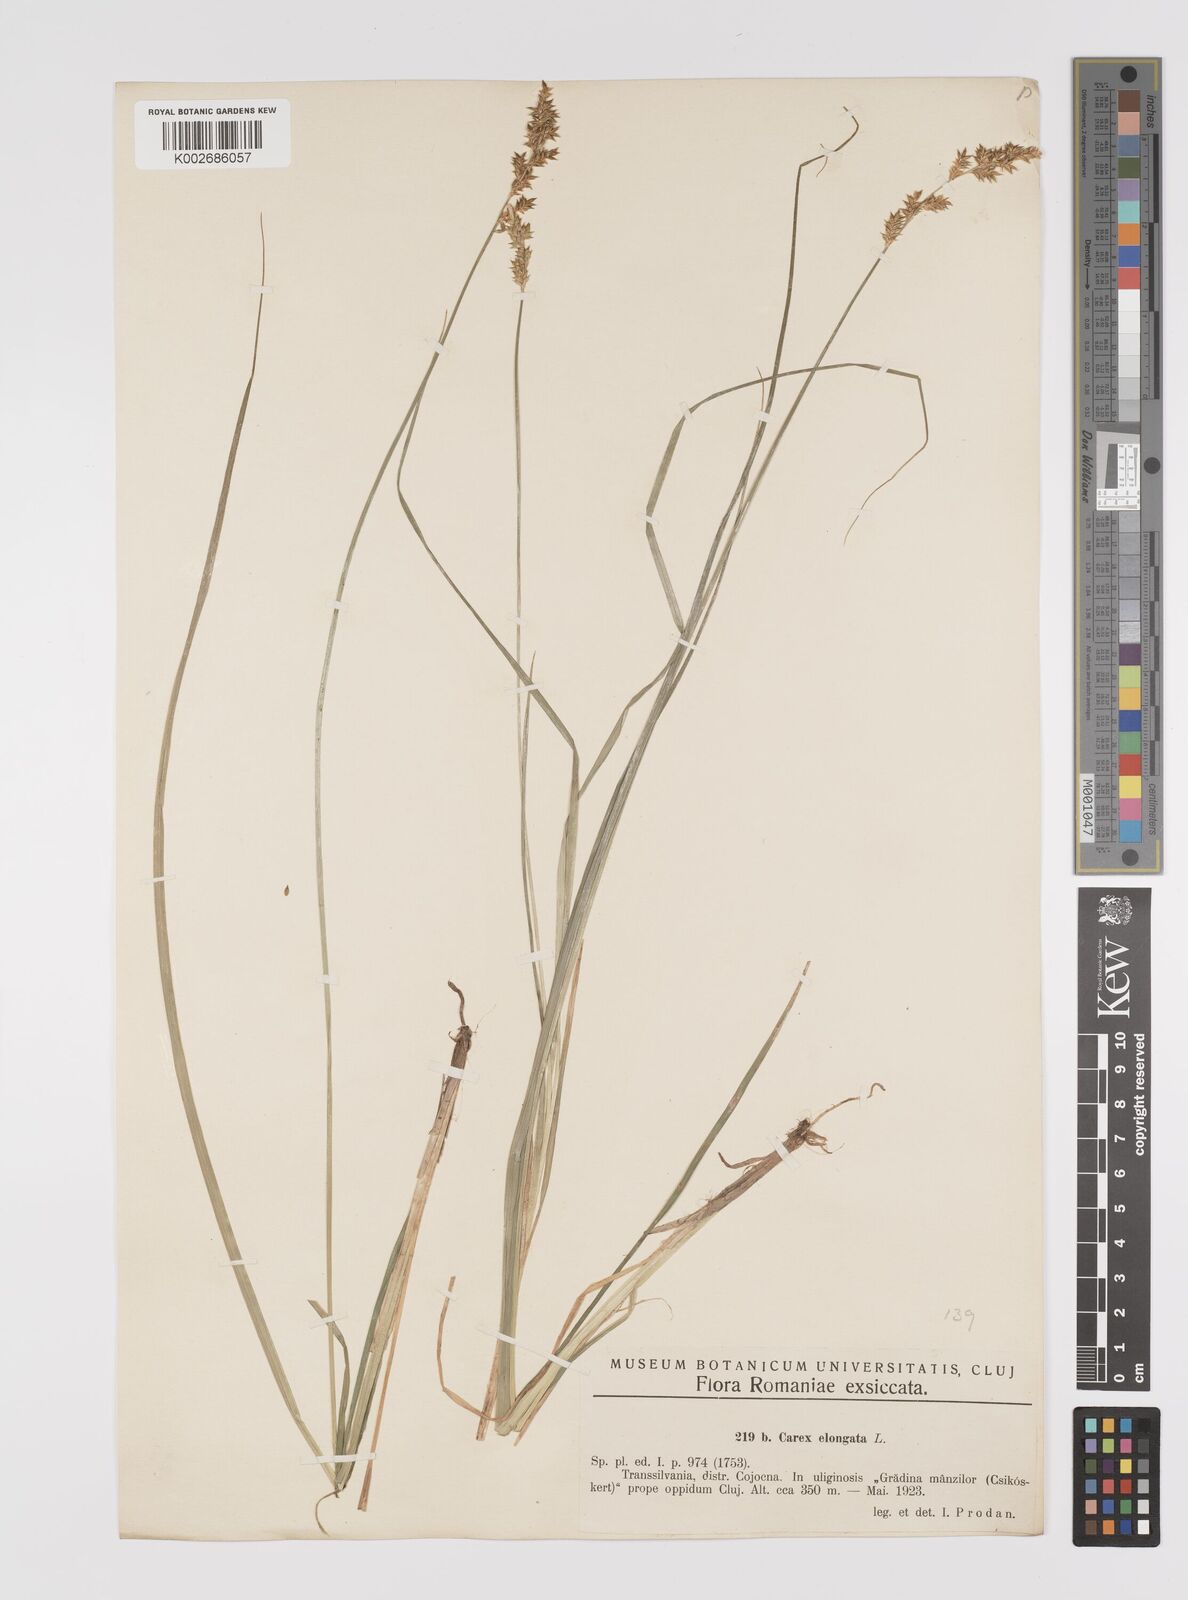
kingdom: Plantae
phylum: Tracheophyta
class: Liliopsida
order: Poales
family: Cyperaceae
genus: Carex
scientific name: Carex elongata
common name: Elongated sedge
